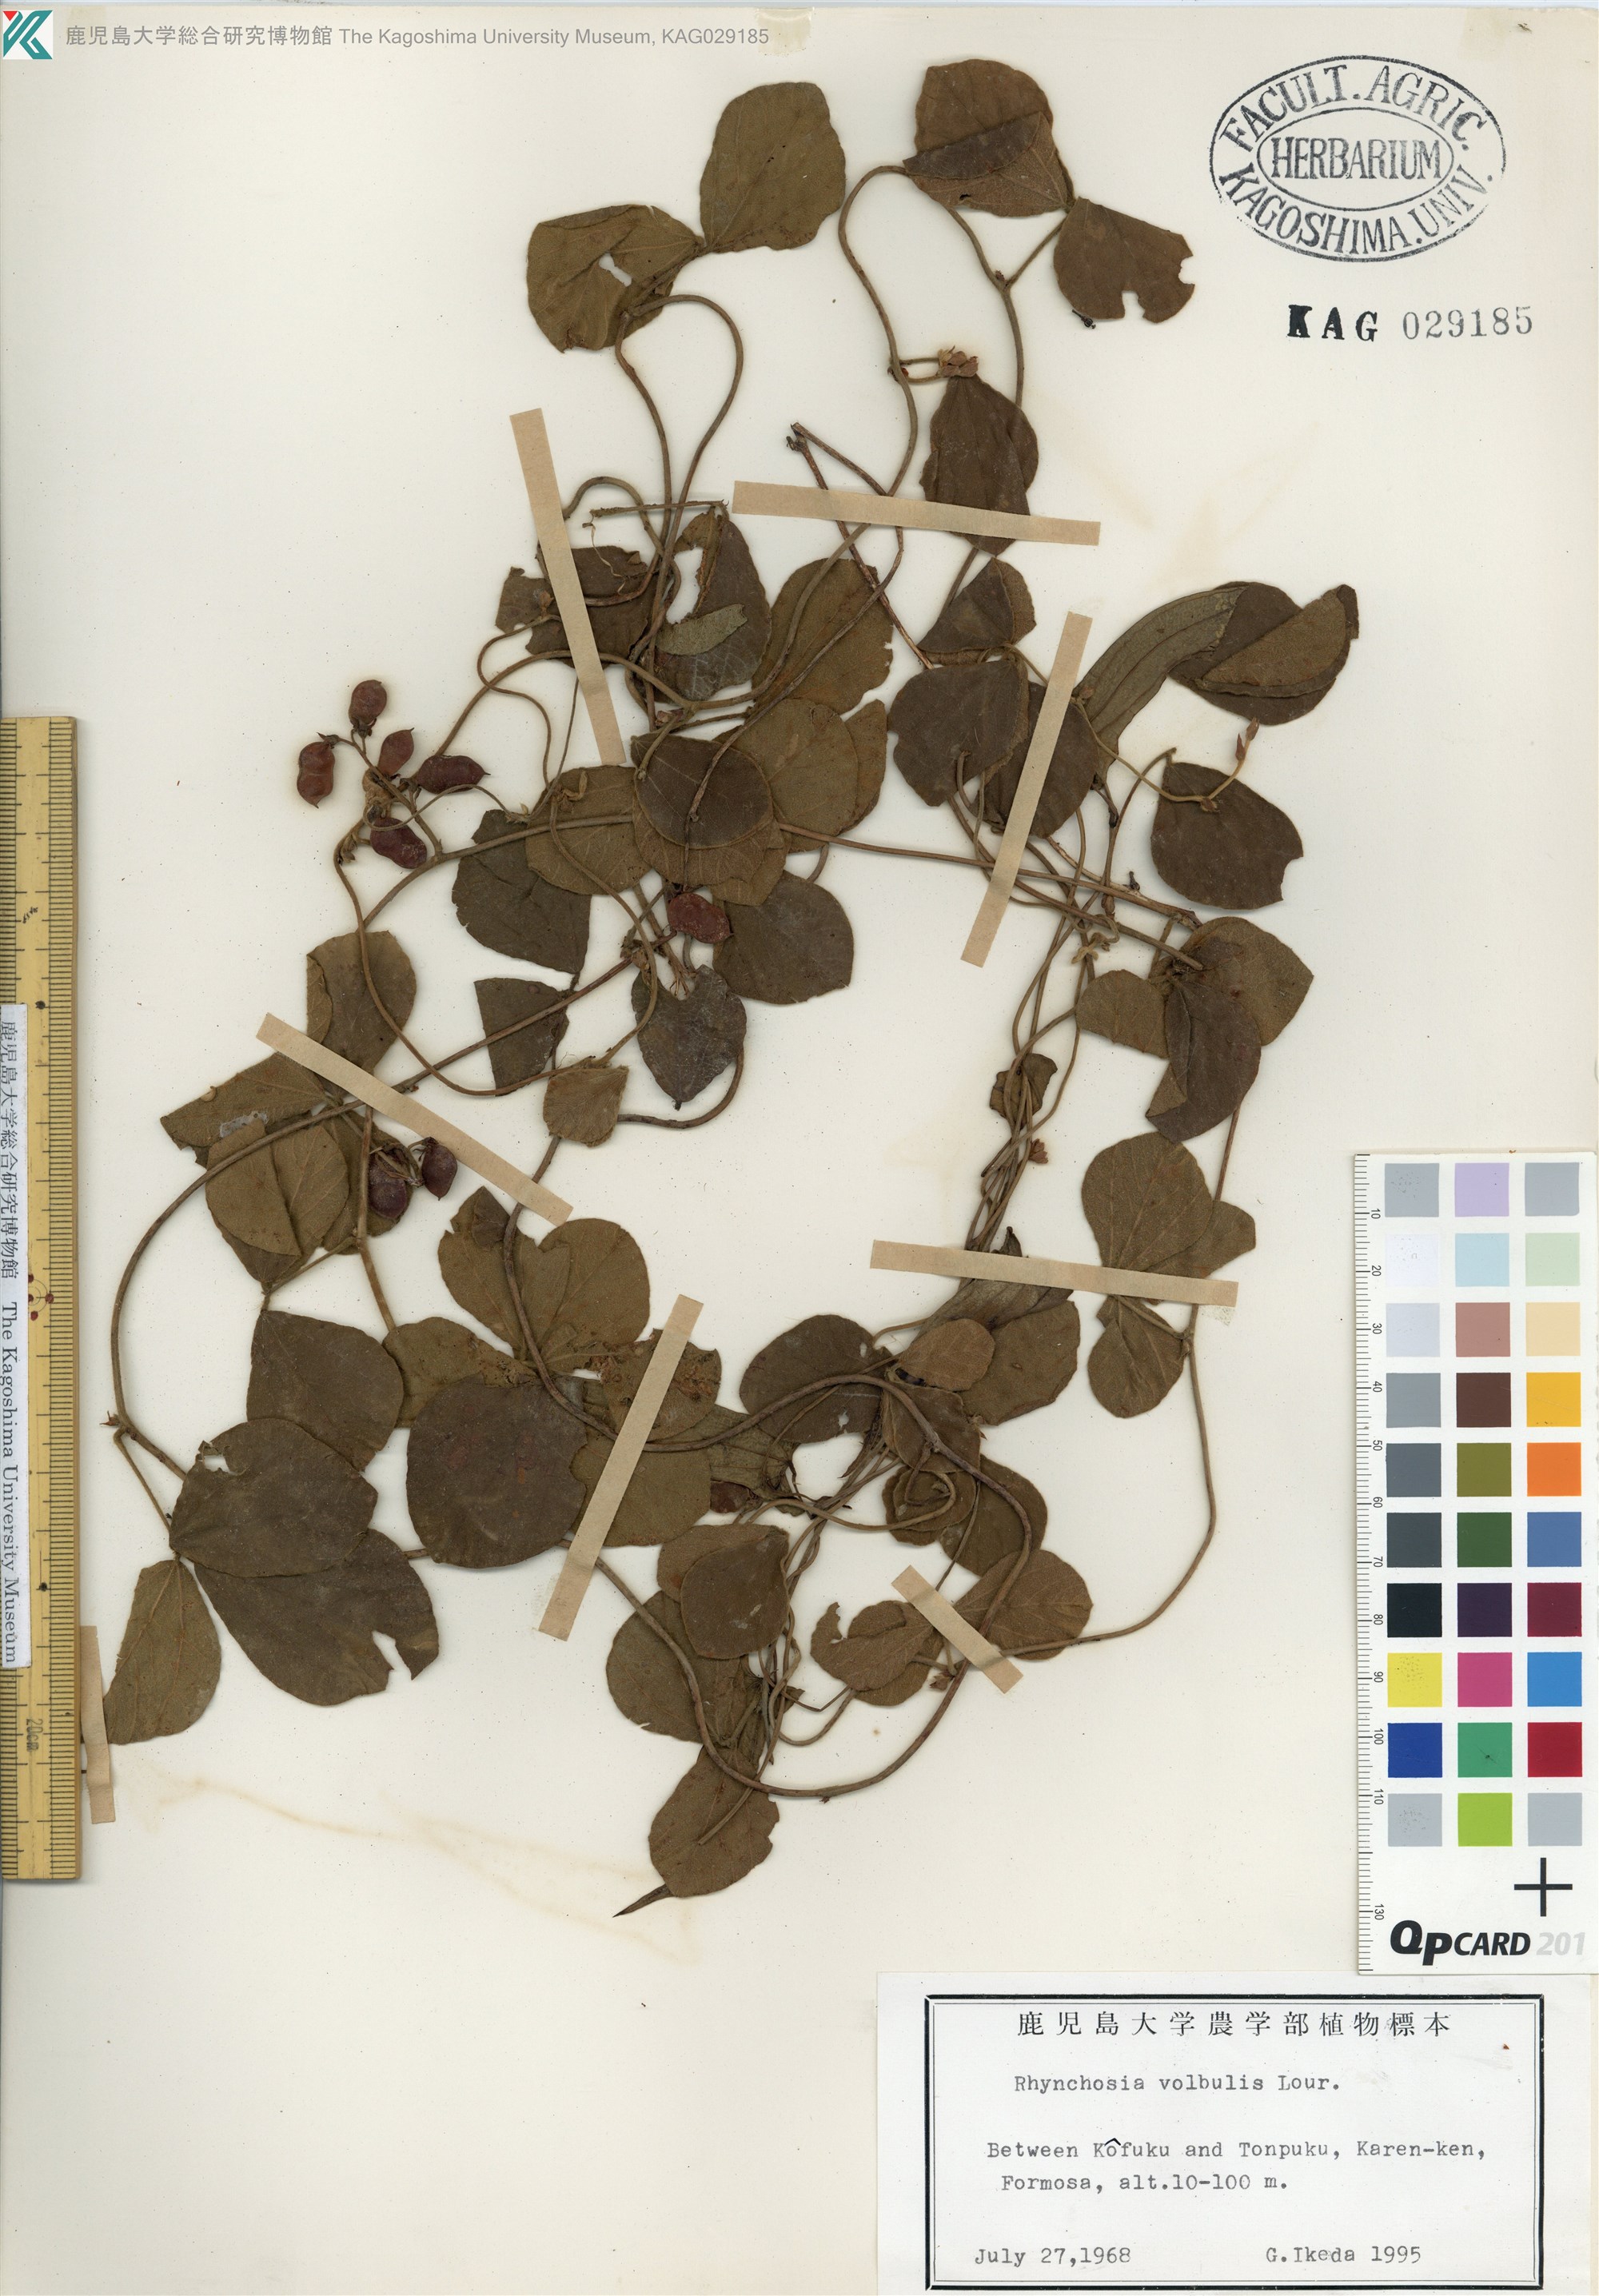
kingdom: Plantae
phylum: Tracheophyta
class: Magnoliopsida
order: Fabales
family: Fabaceae
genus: Rhynchosia
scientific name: Rhynchosia volubilis
